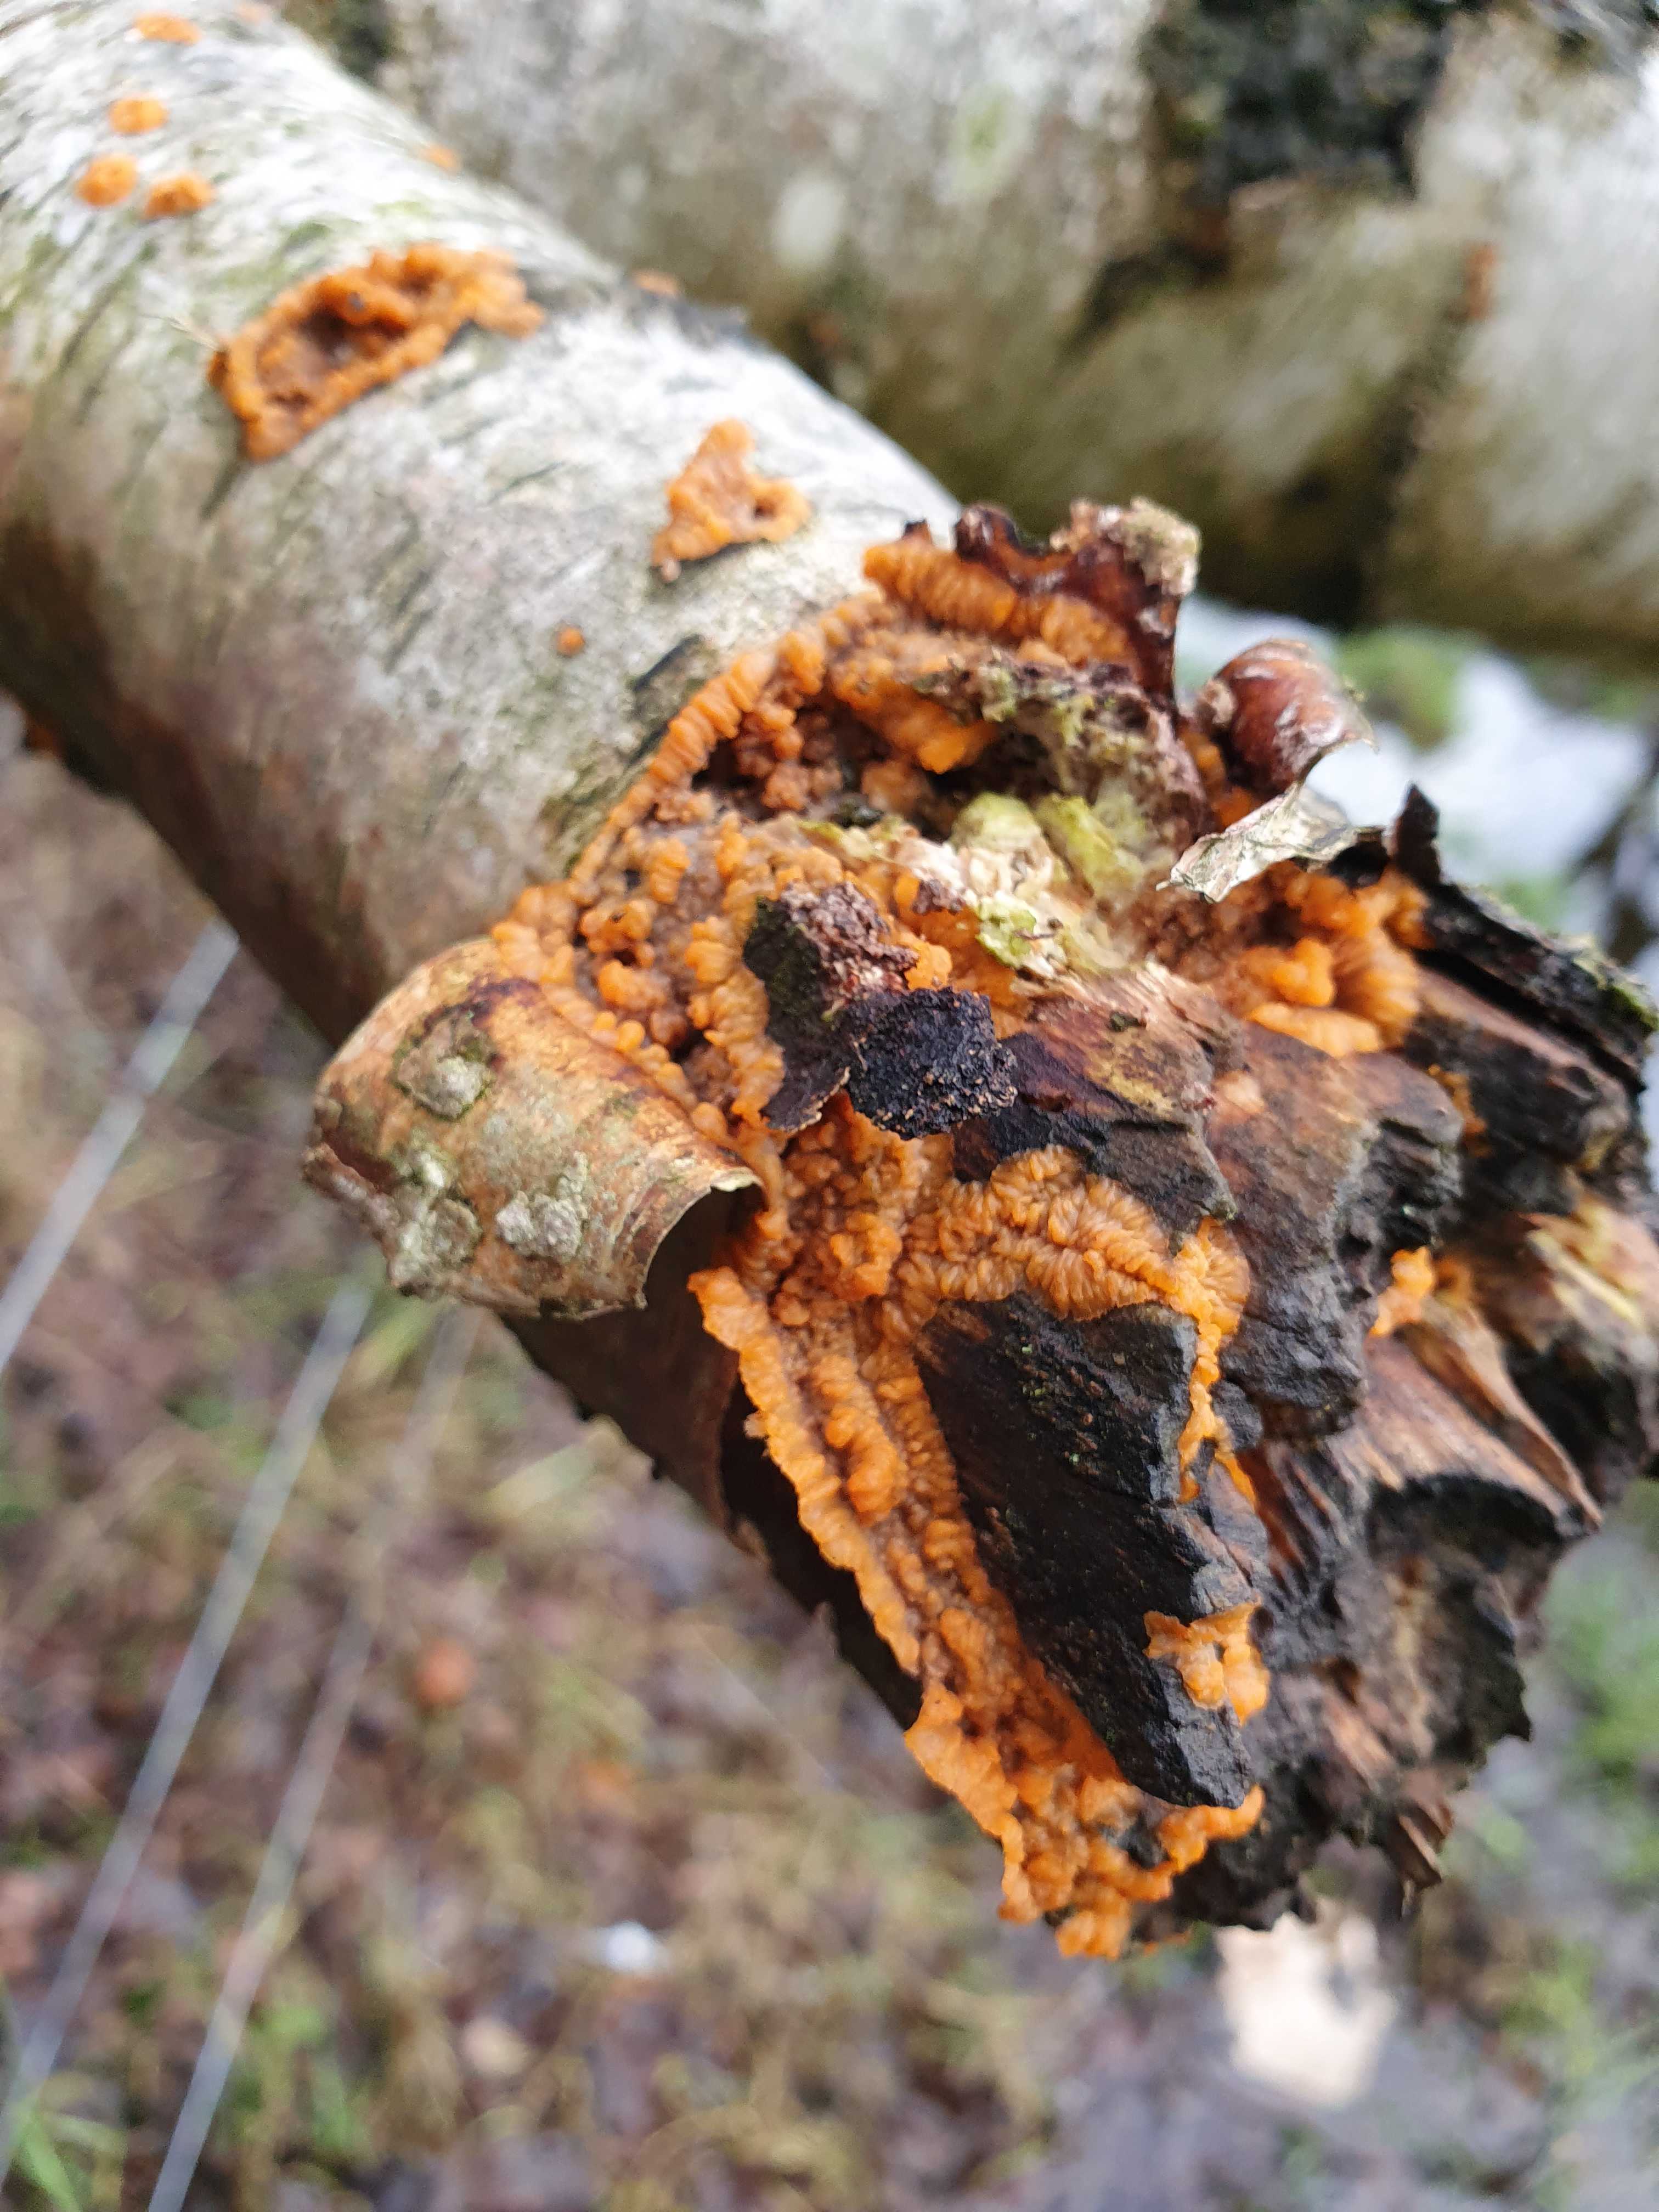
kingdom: Fungi
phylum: Basidiomycota
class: Agaricomycetes
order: Polyporales
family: Meruliaceae
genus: Phlebia
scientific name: Phlebia radiata
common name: stråle-åresvamp
